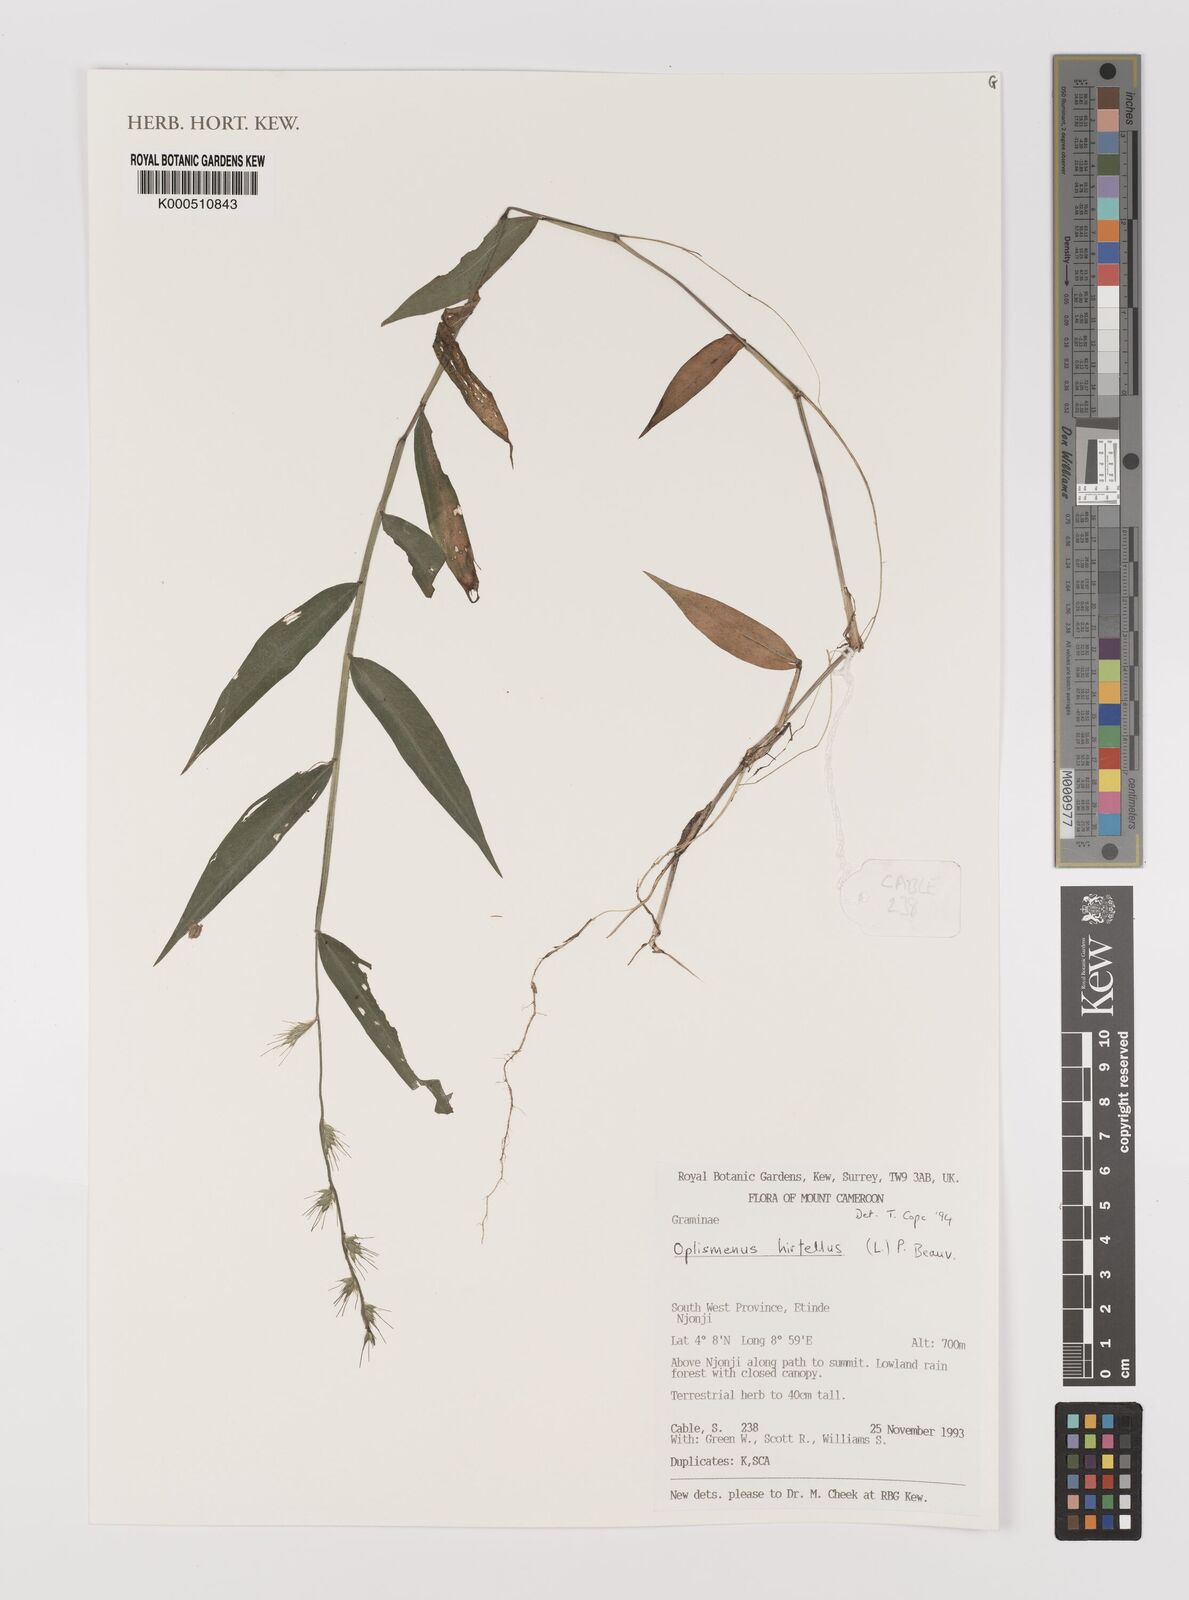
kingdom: Plantae
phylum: Tracheophyta
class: Liliopsida
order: Poales
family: Poaceae
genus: Oplismenus
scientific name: Oplismenus hirtellus
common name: Basketgrass
